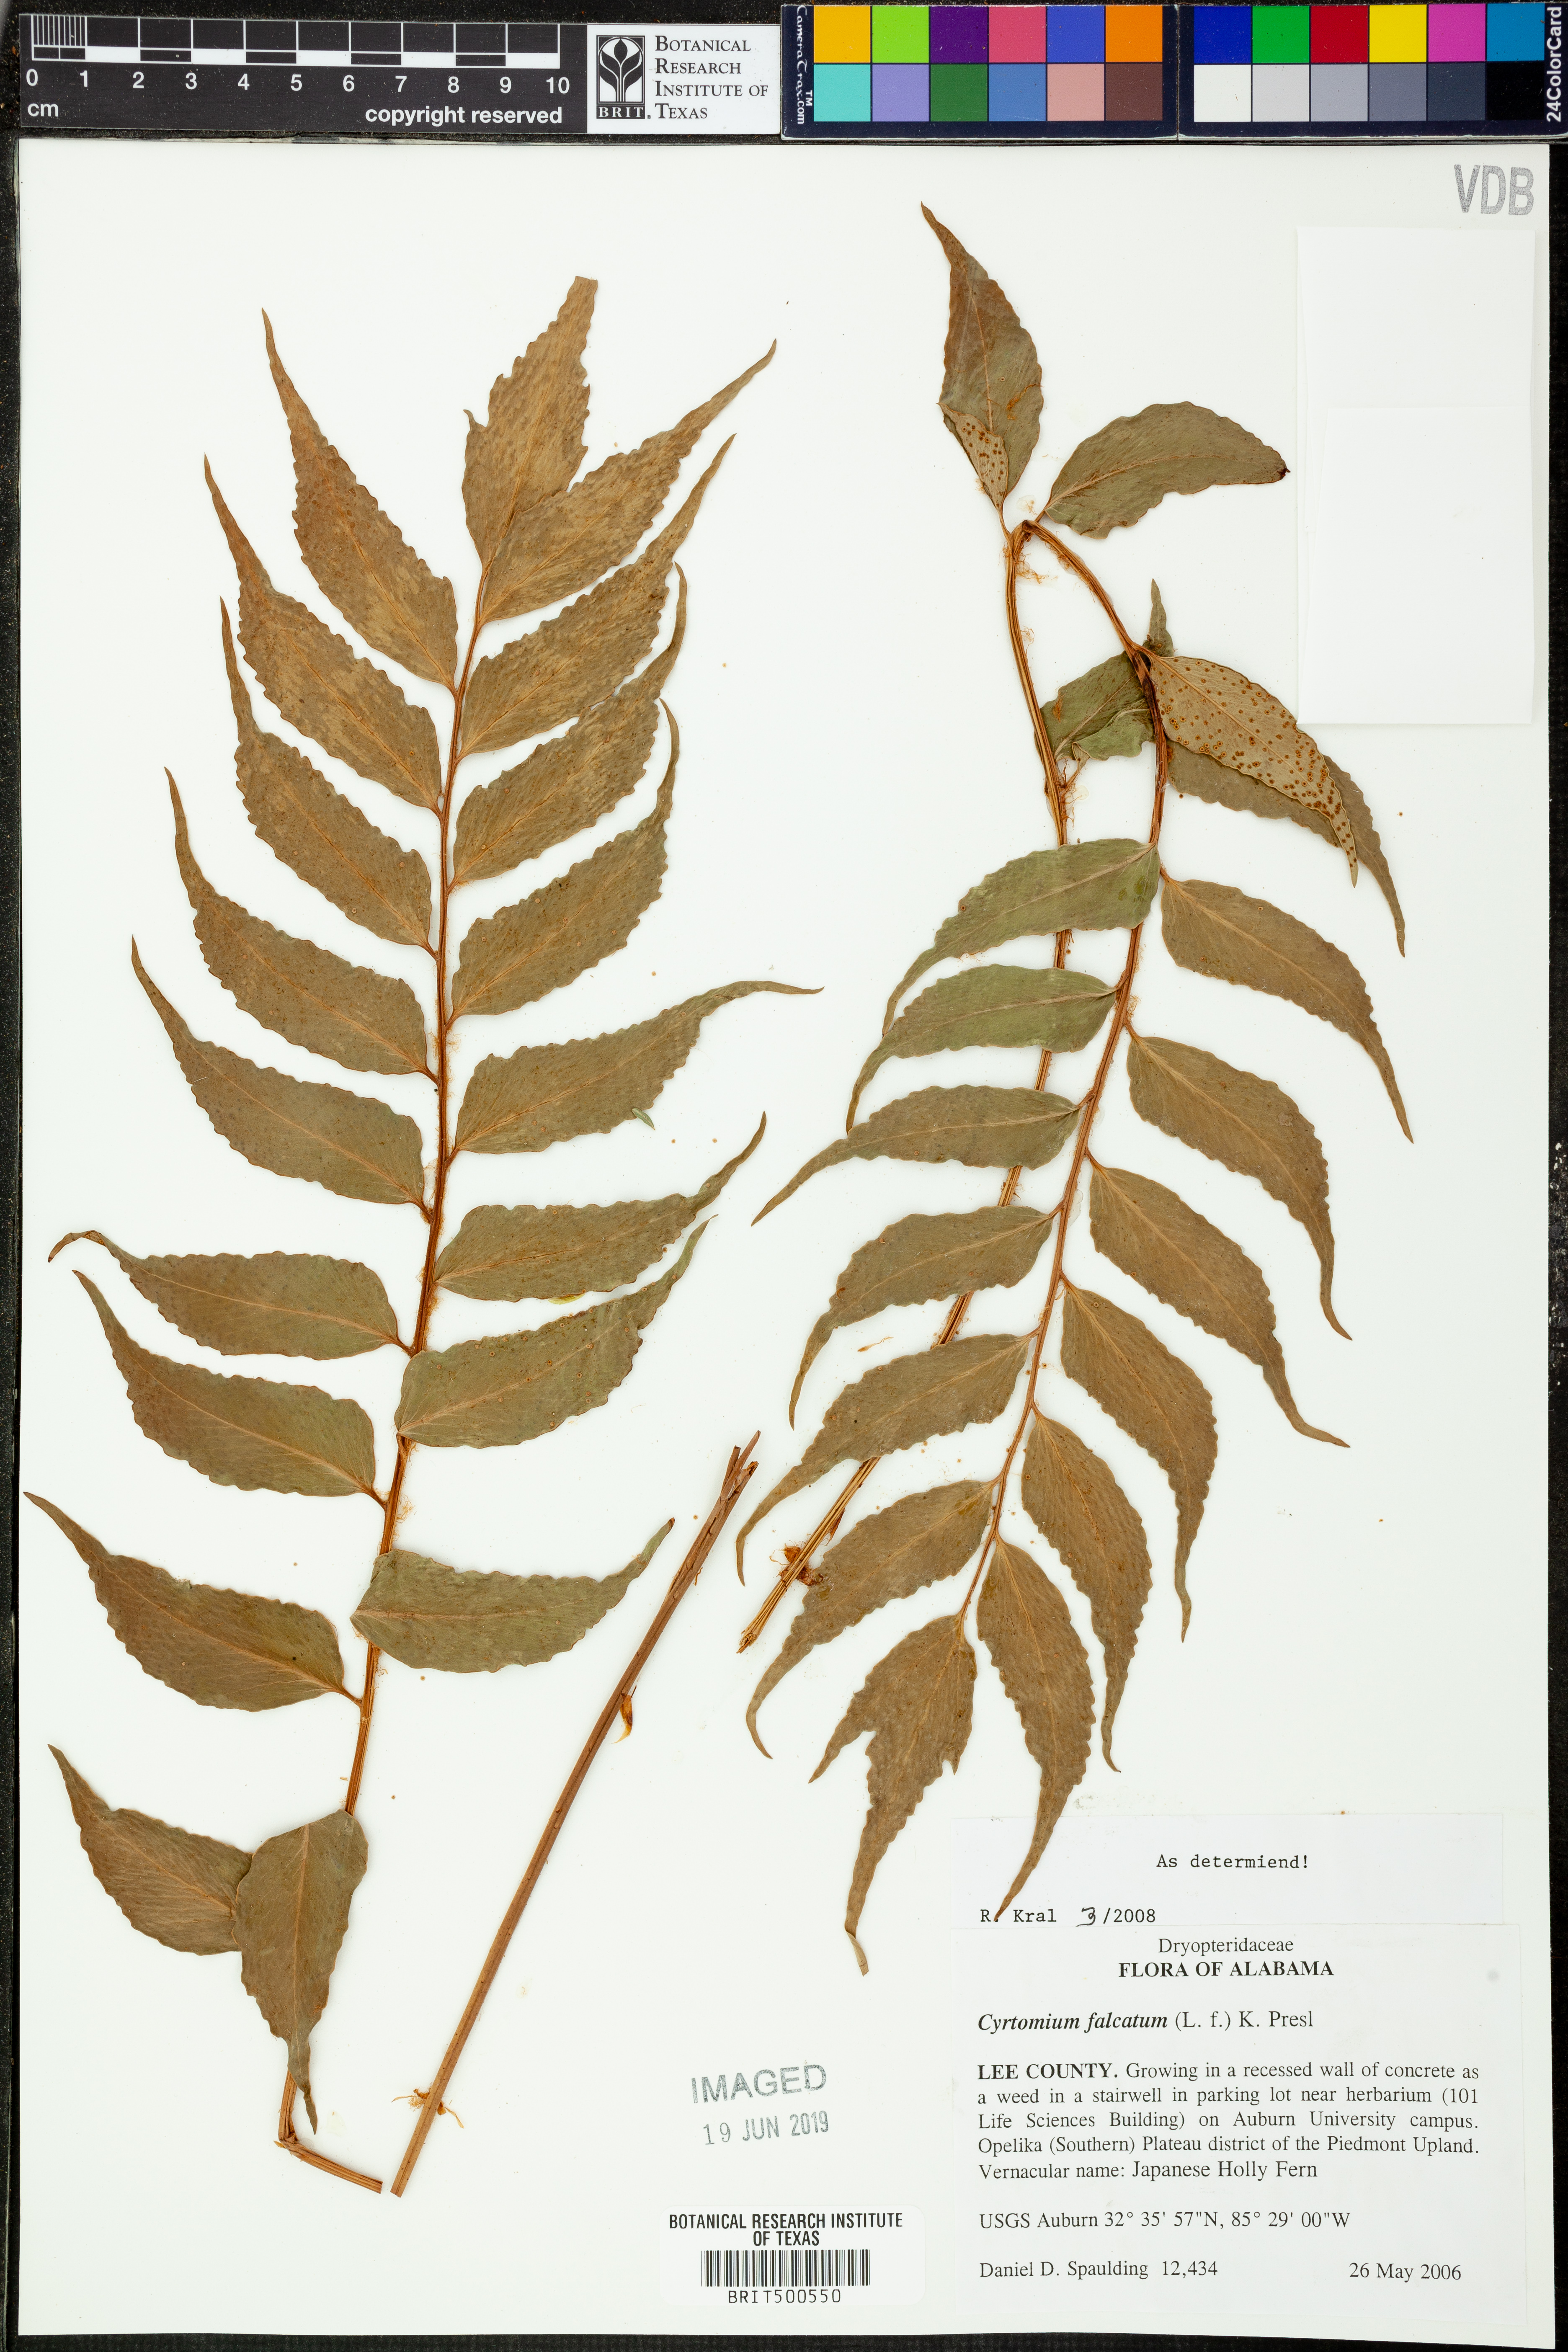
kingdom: Plantae
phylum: Tracheophyta
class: Polypodiopsida
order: Polypodiales
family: Dryopteridaceae
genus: Cyrtomium
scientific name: Cyrtomium falcatum
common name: House holly-fern
